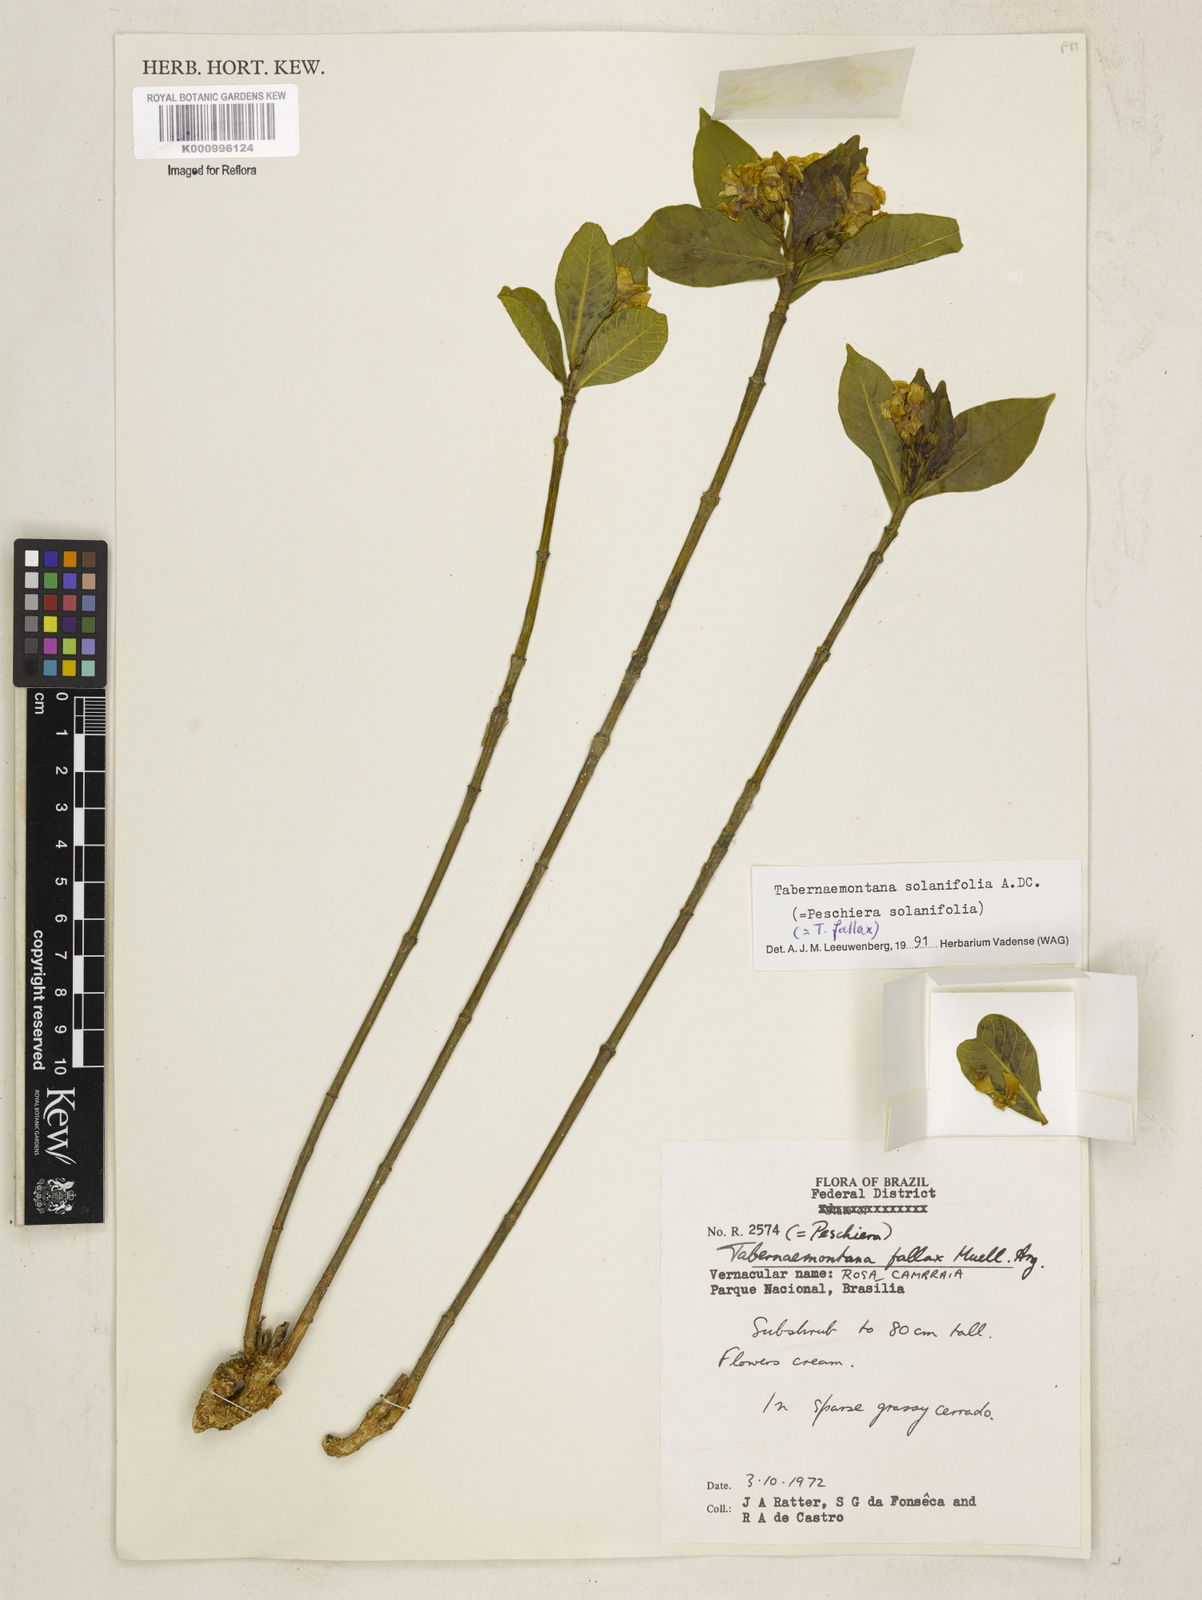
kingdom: Plantae
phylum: Tracheophyta
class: Magnoliopsida
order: Gentianales
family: Apocynaceae
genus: Tabernaemontana
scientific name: Tabernaemontana solanifolia
